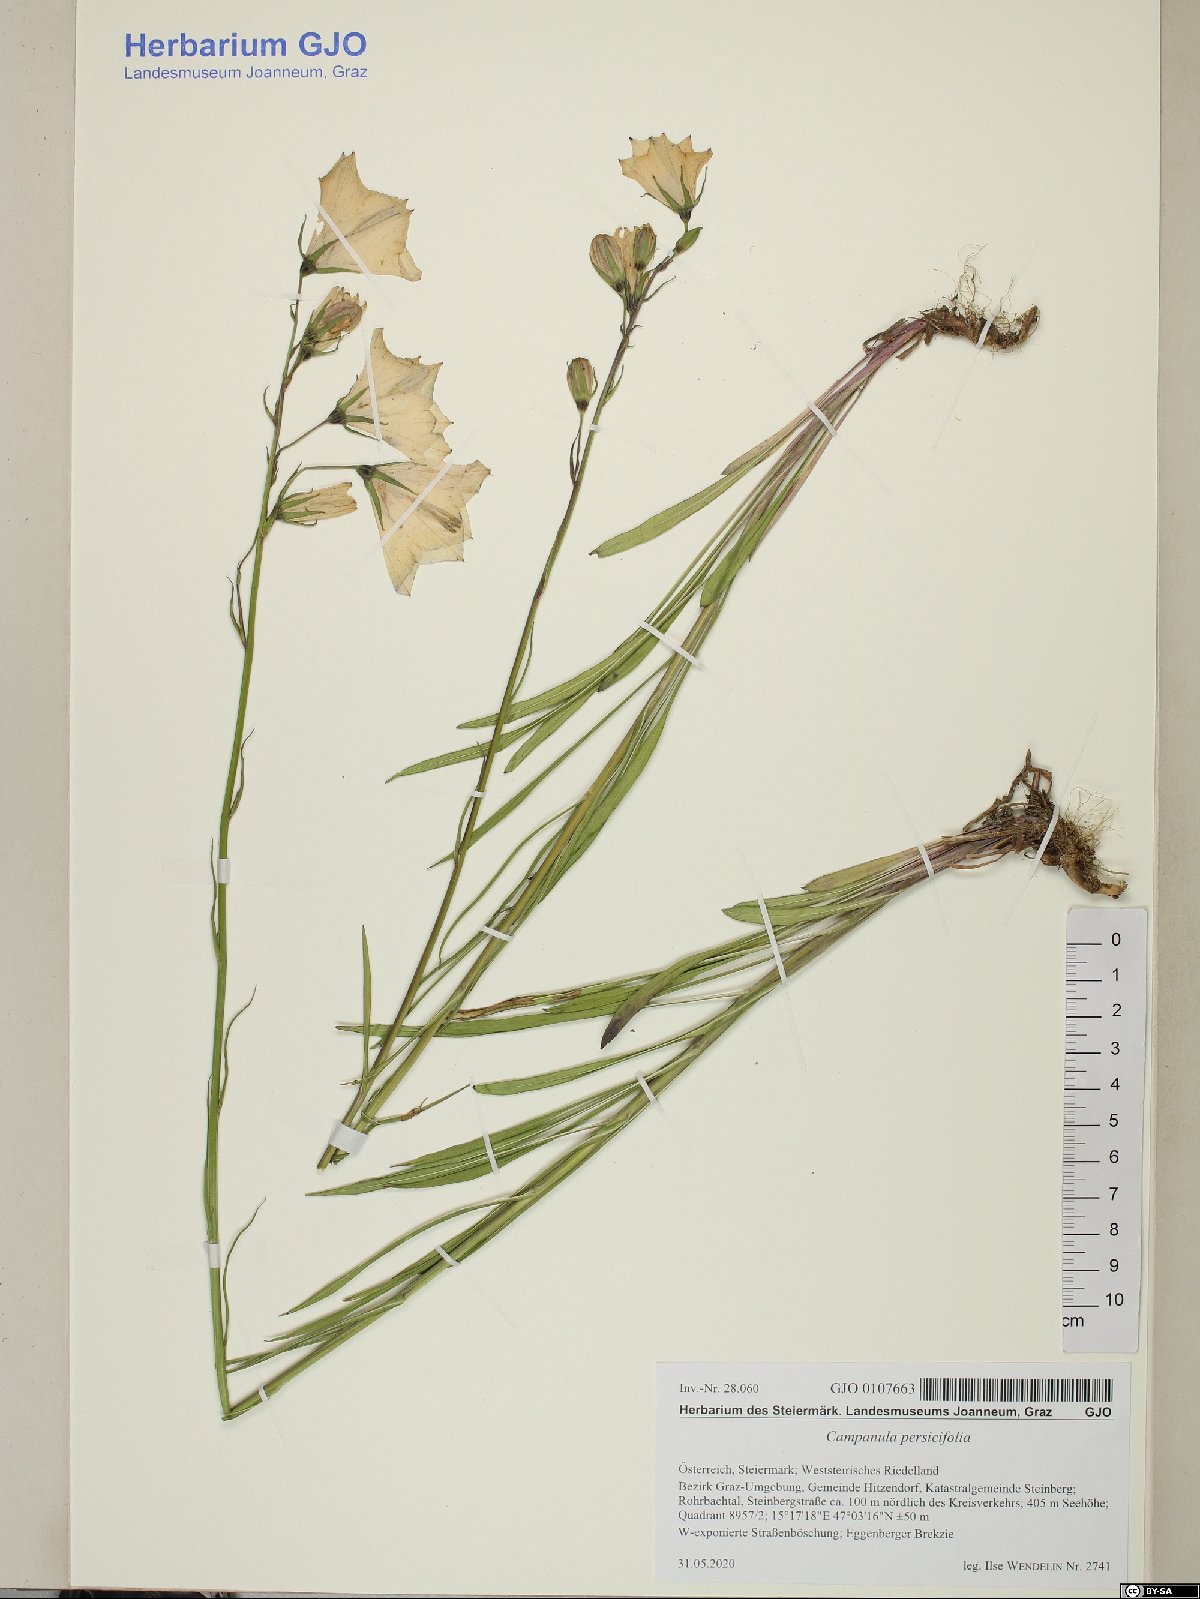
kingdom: Plantae
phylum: Tracheophyta
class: Magnoliopsida
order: Asterales
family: Campanulaceae
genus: Campanula
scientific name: Campanula persicifolia
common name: Peach-leaved bellflower
